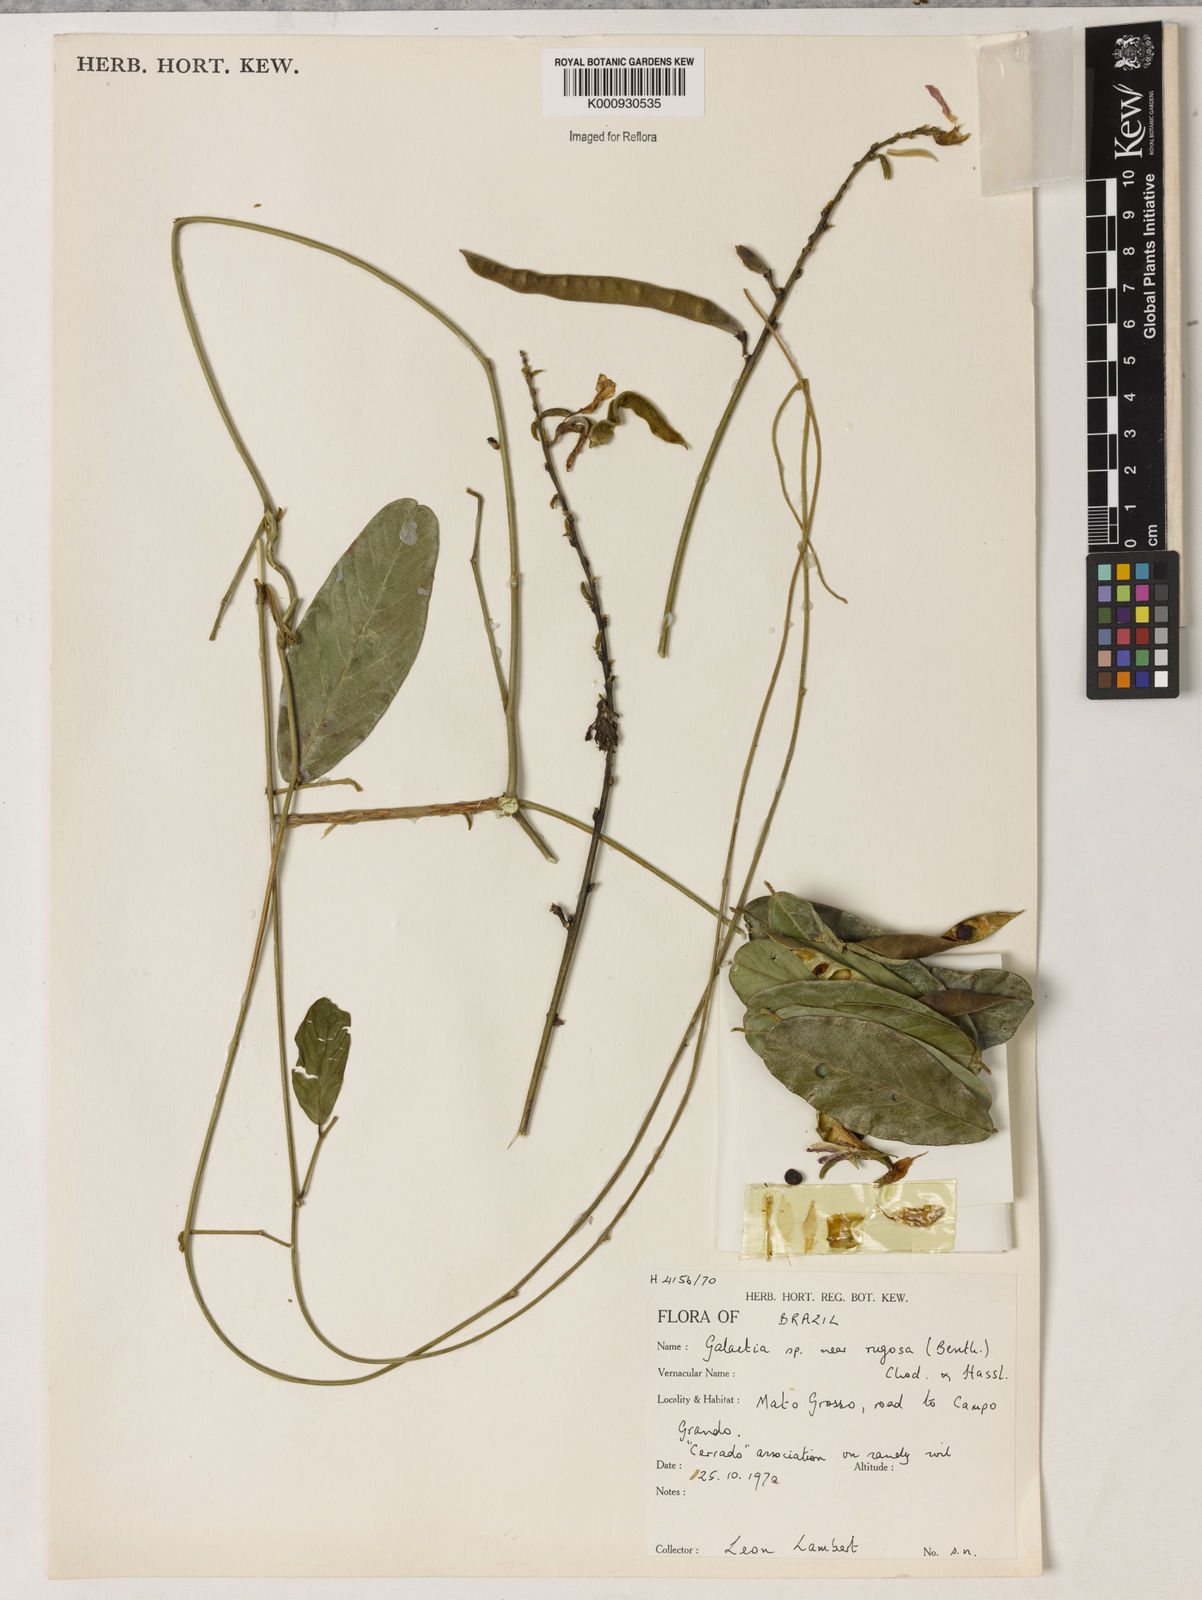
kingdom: Plantae
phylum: Tracheophyta
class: Magnoliopsida
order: Fabales
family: Fabaceae
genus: Galactia
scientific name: Galactia
